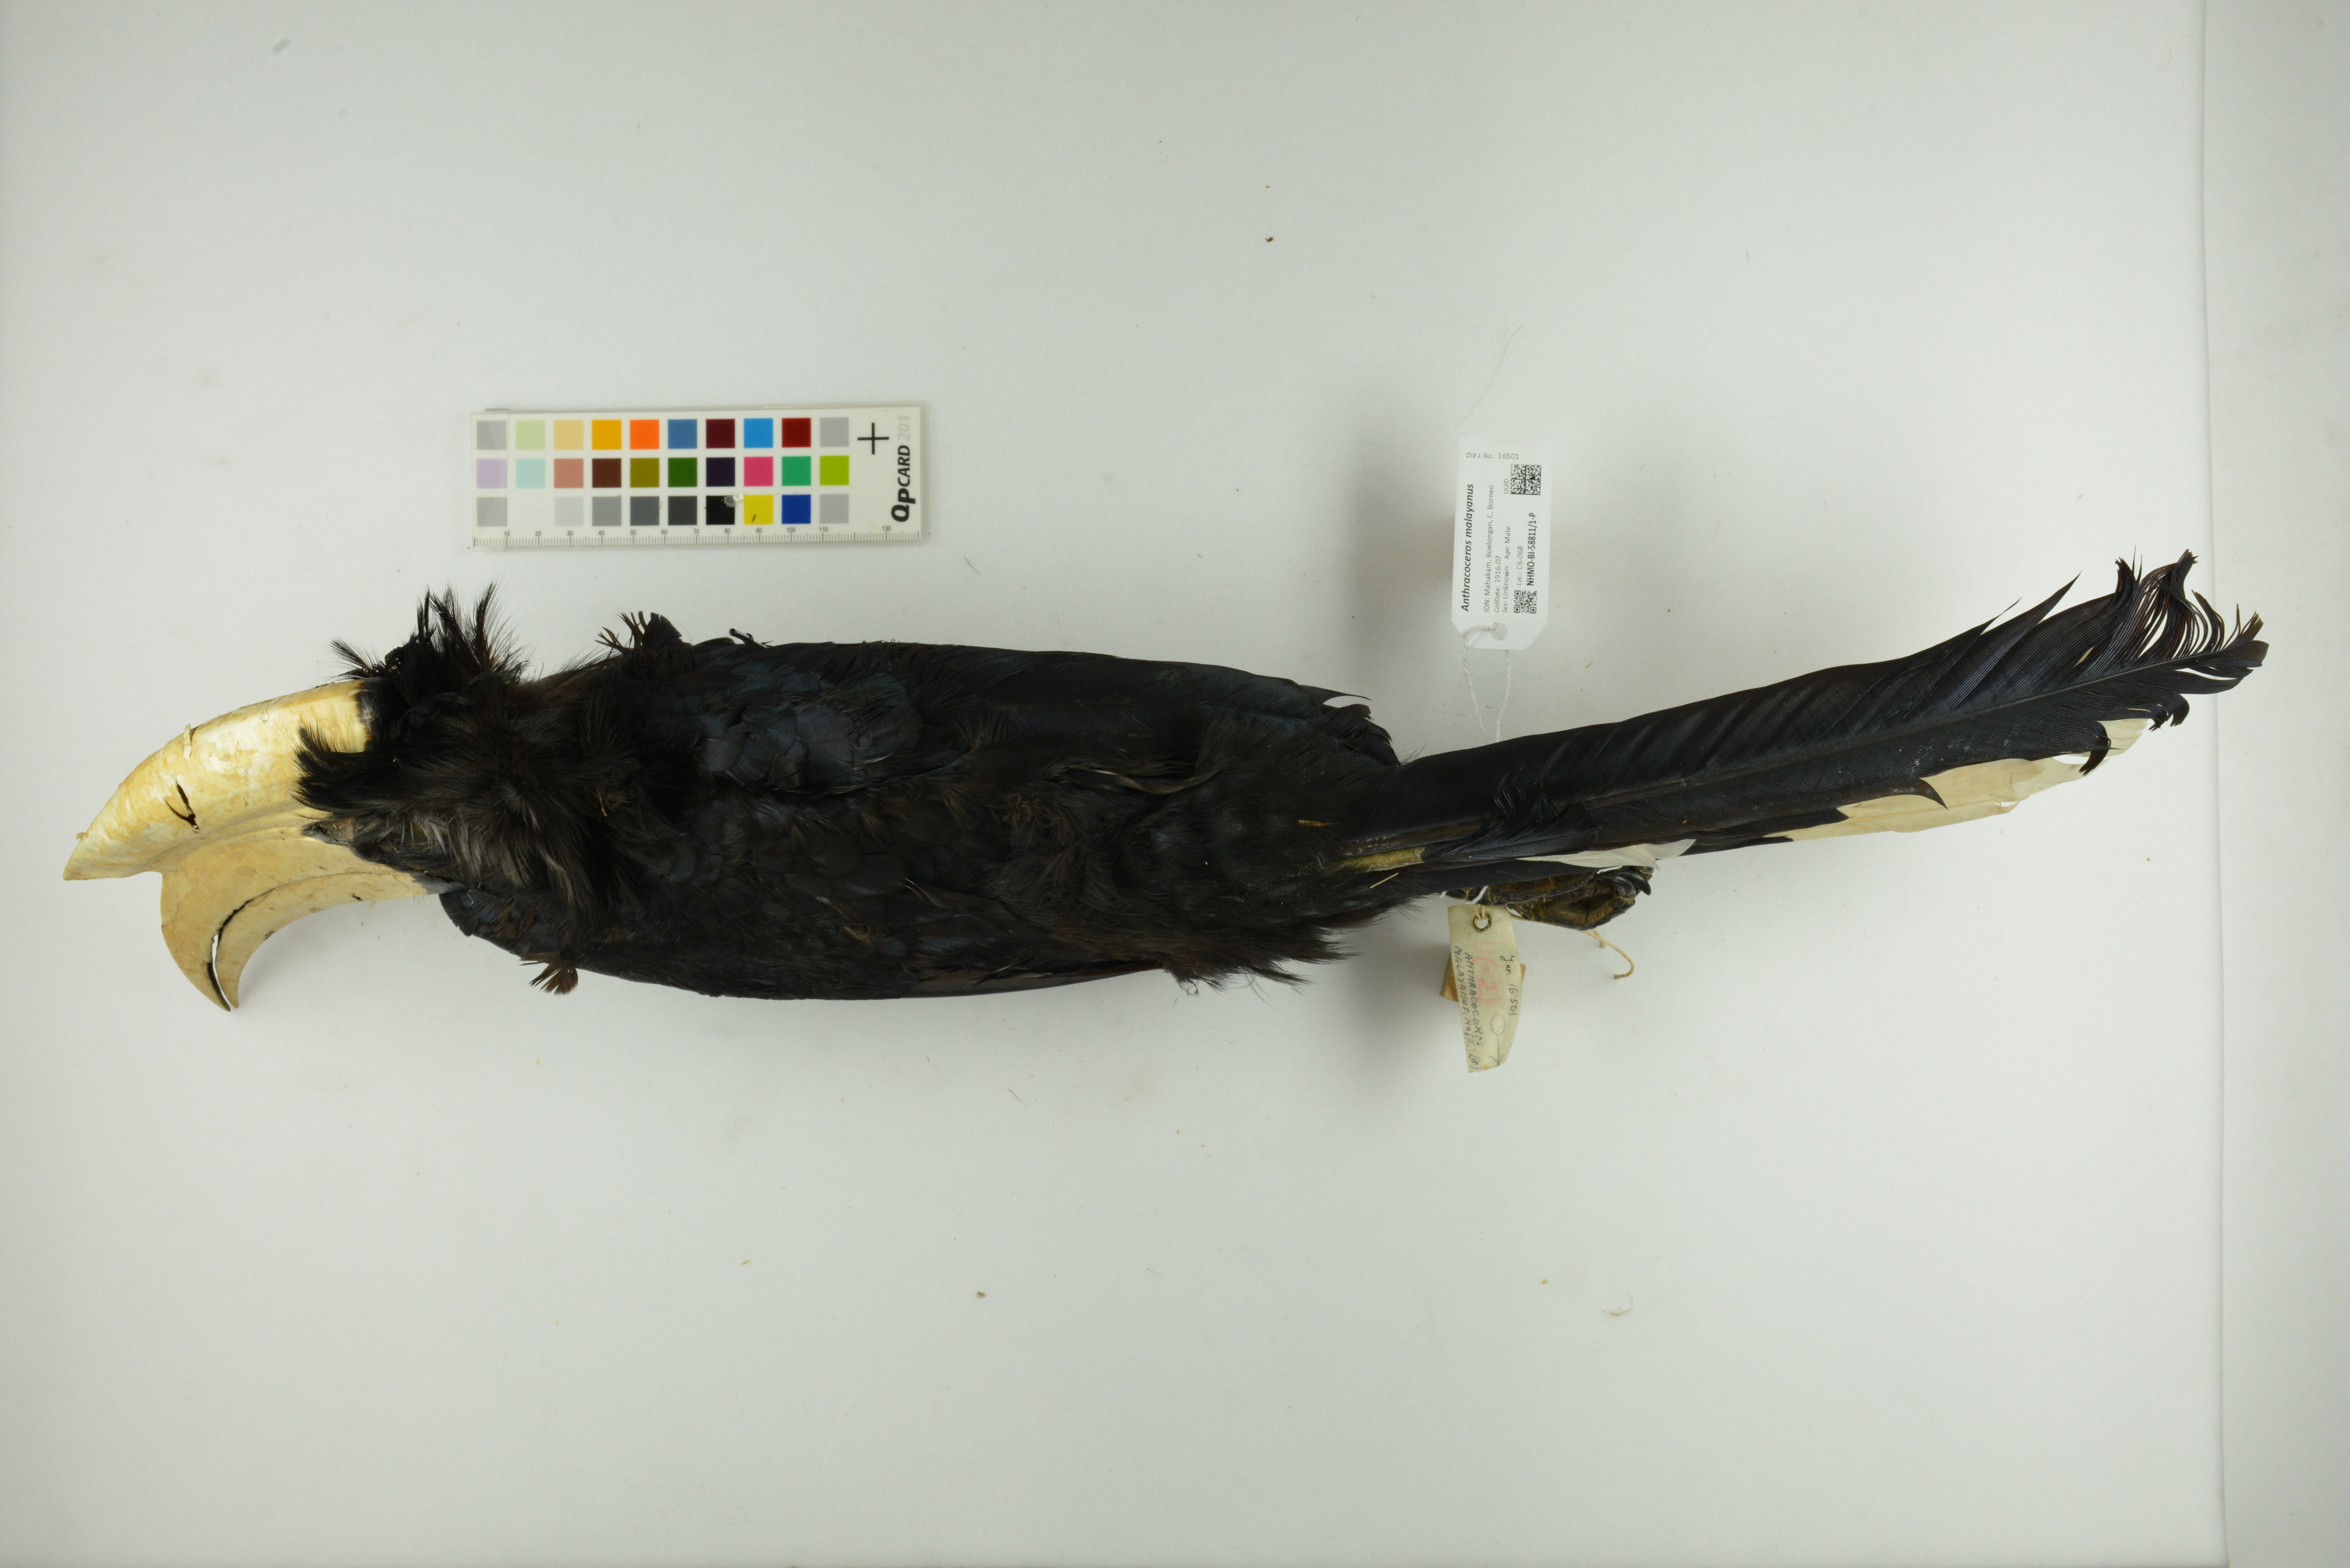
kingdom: Animalia
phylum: Chordata
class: Aves
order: Bucerotiformes
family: Bucerotidae
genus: Anthracoceros
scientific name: Anthracoceros malayanus
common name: Black hornbill
